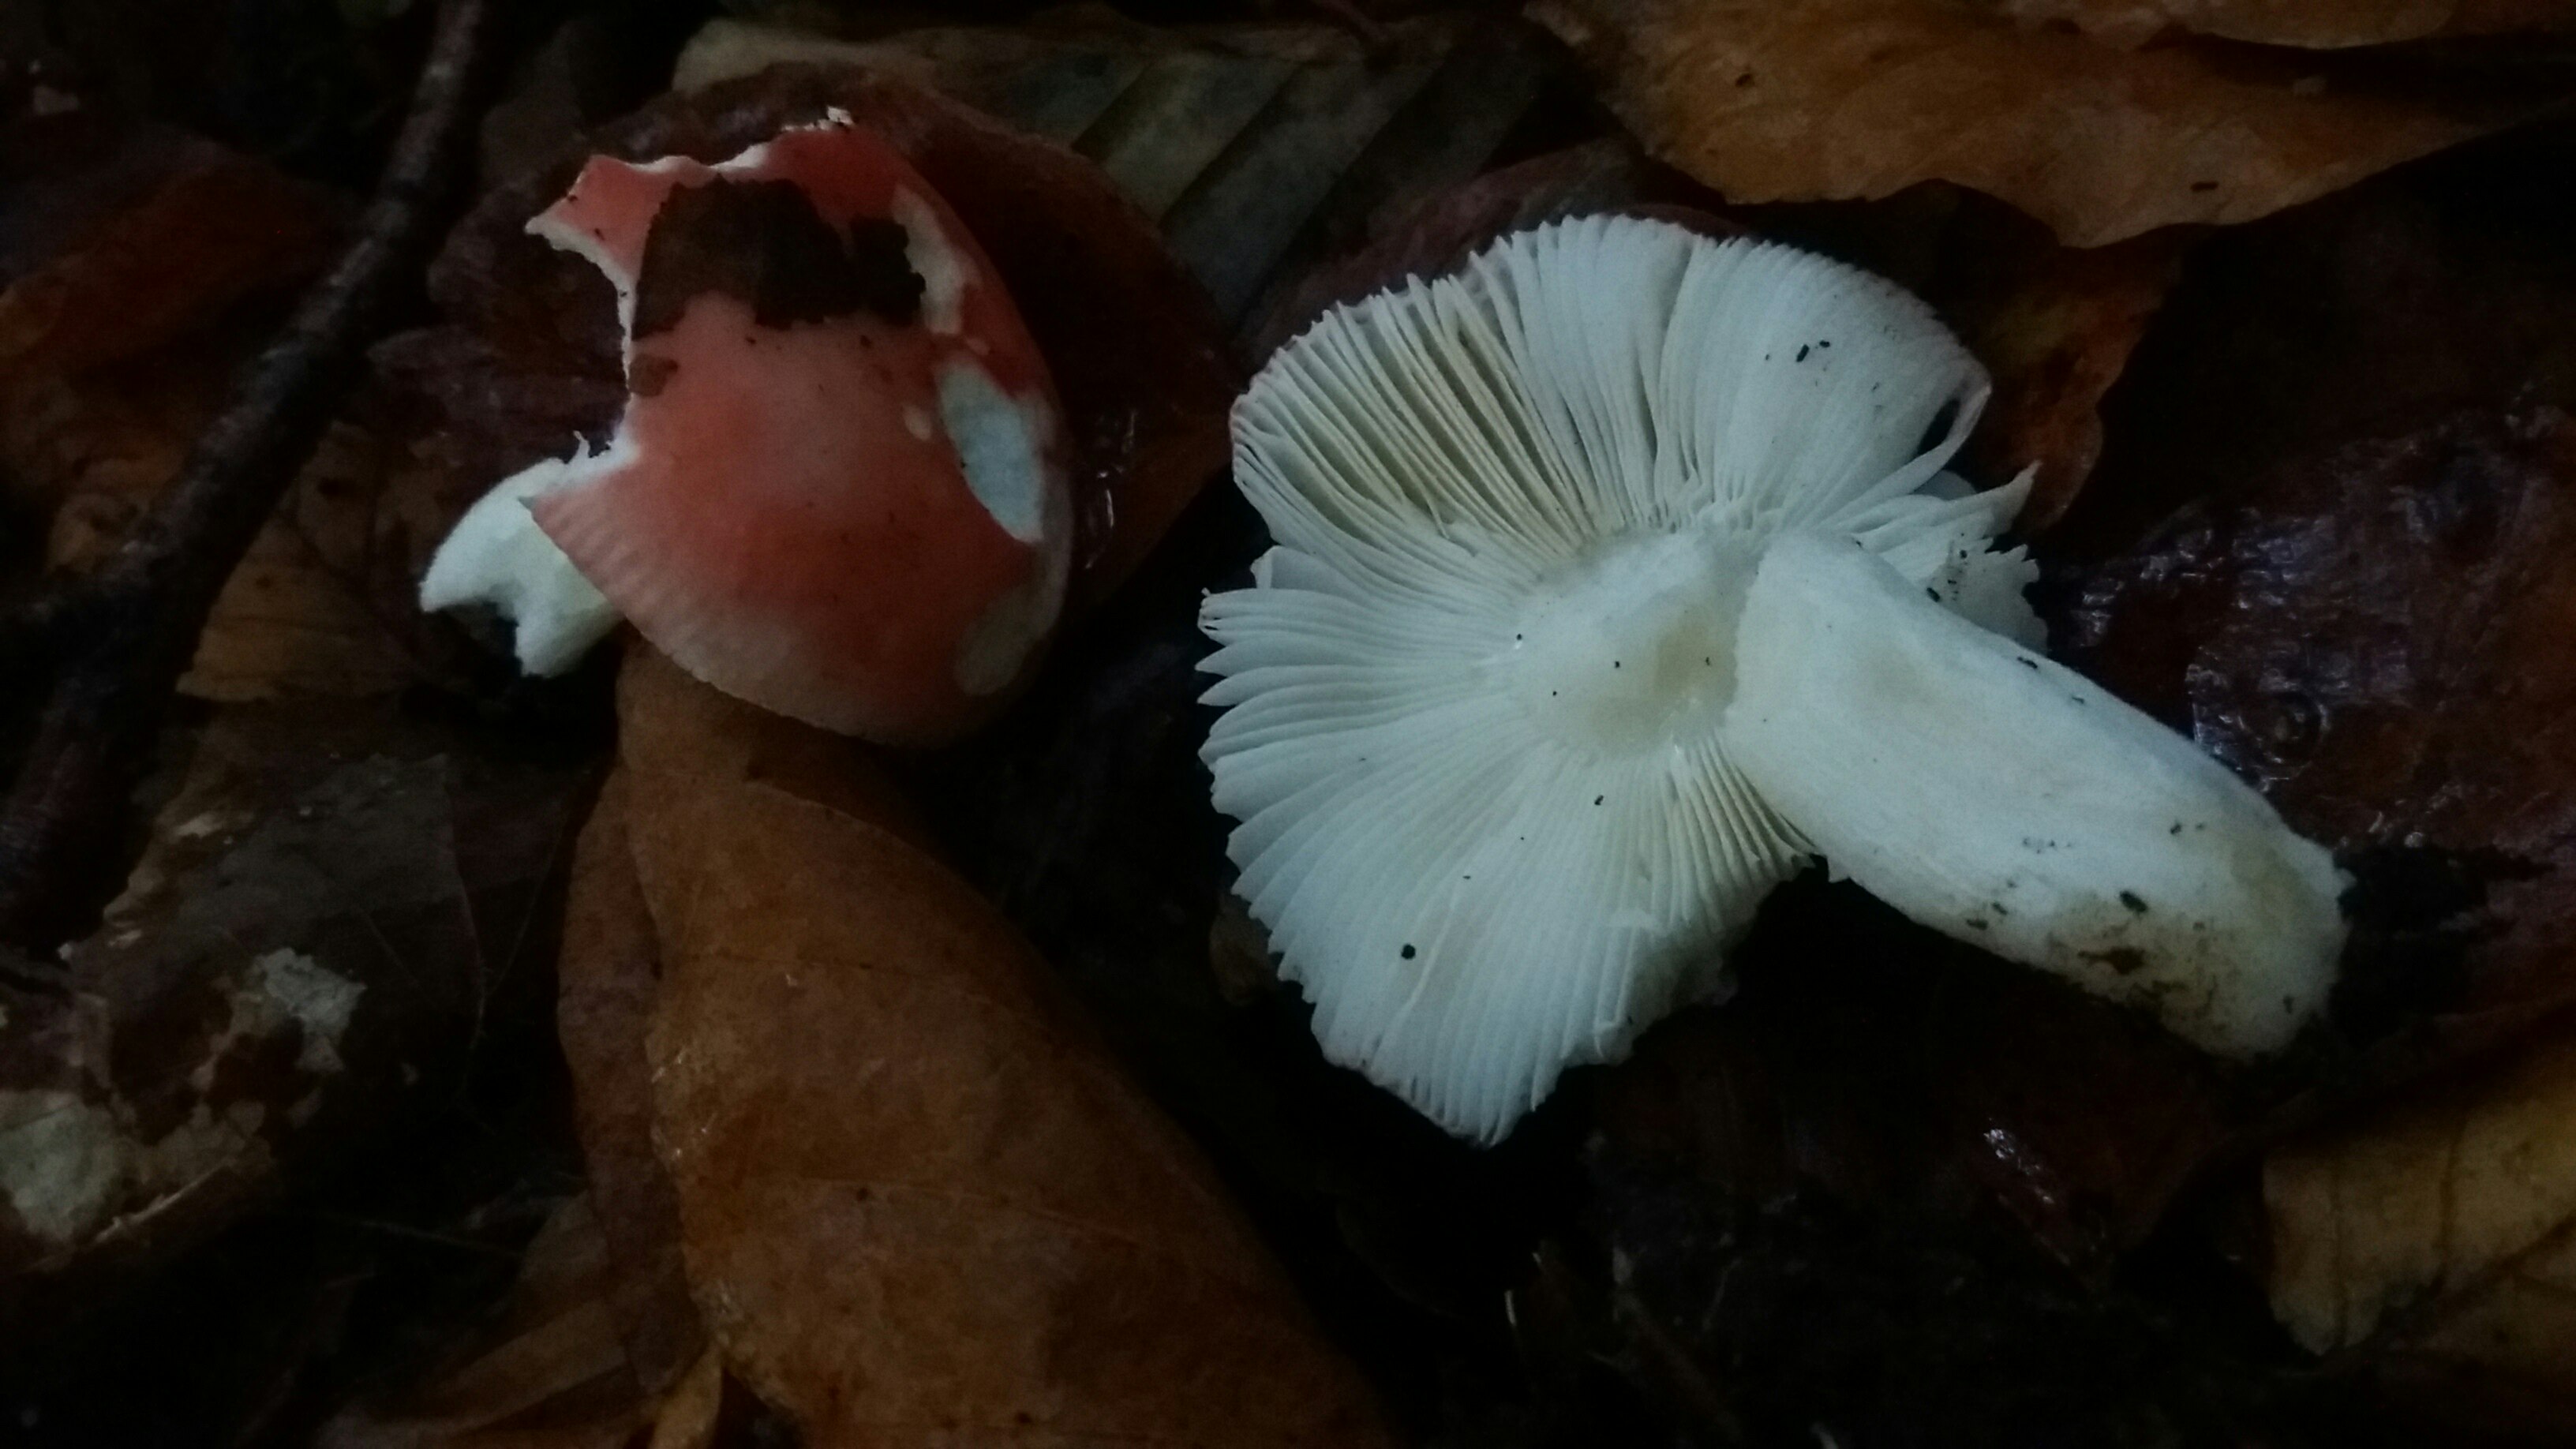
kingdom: Fungi
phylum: Basidiomycota
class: Agaricomycetes
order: Russulales
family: Russulaceae
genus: Russula
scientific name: Russula nobilis
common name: lille gift-skørhat
